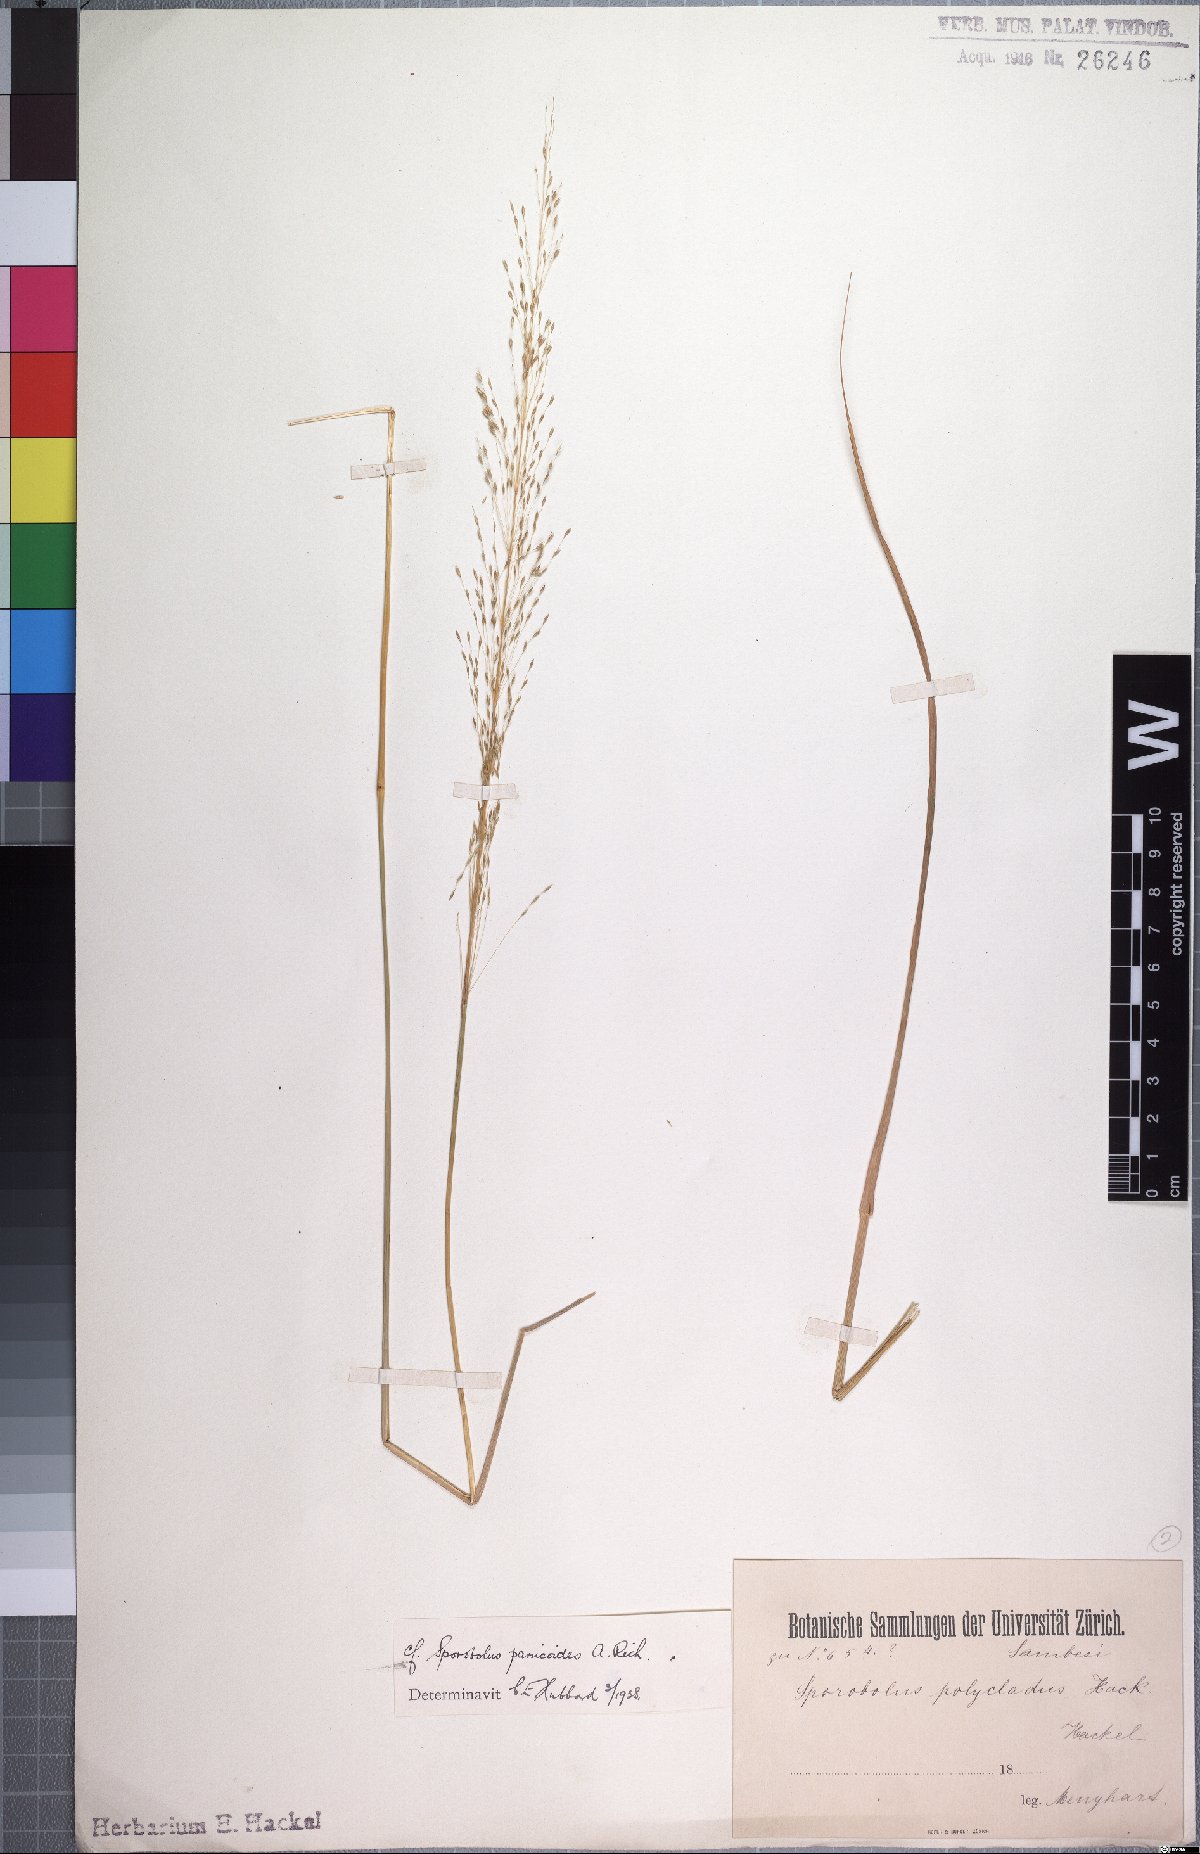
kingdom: Plantae
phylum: Tracheophyta
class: Liliopsida
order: Poales
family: Poaceae
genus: Sporobolus
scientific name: Sporobolus panicoides
